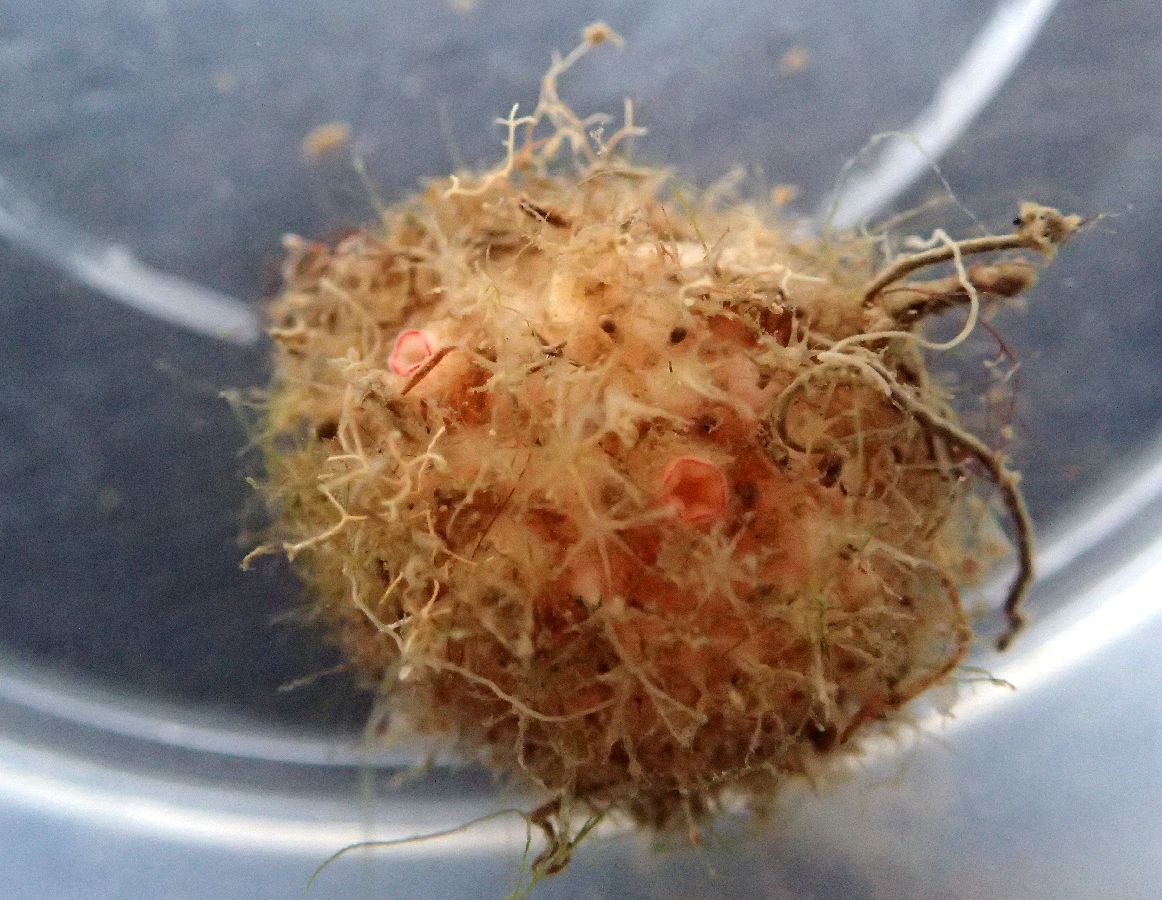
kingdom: Animalia
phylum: Chordata
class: Ascidiacea
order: Stolidobranchia
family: Pyuridae
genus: Boltenia
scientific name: Boltenia echinata
